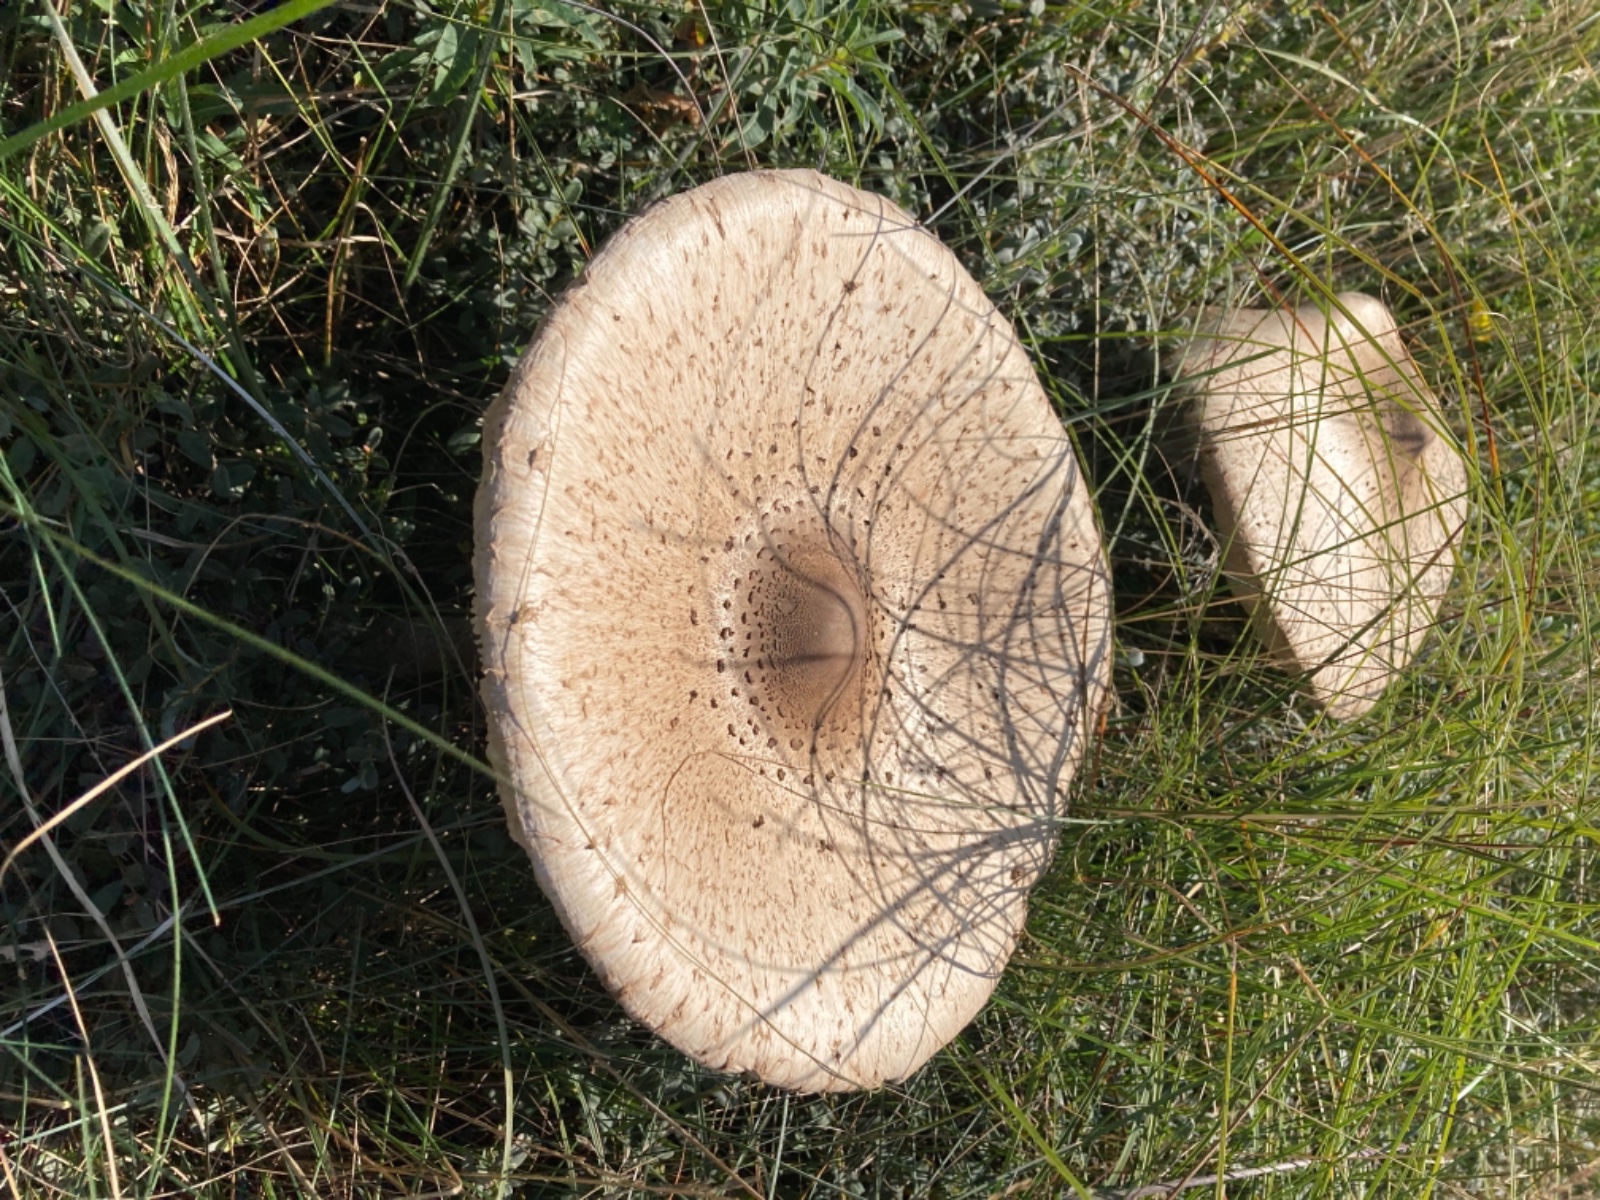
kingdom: Fungi
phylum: Basidiomycota
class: Agaricomycetes
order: Agaricales
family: Agaricaceae
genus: Macrolepiota
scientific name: Macrolepiota procera
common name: stor kæmpeparasolhat
